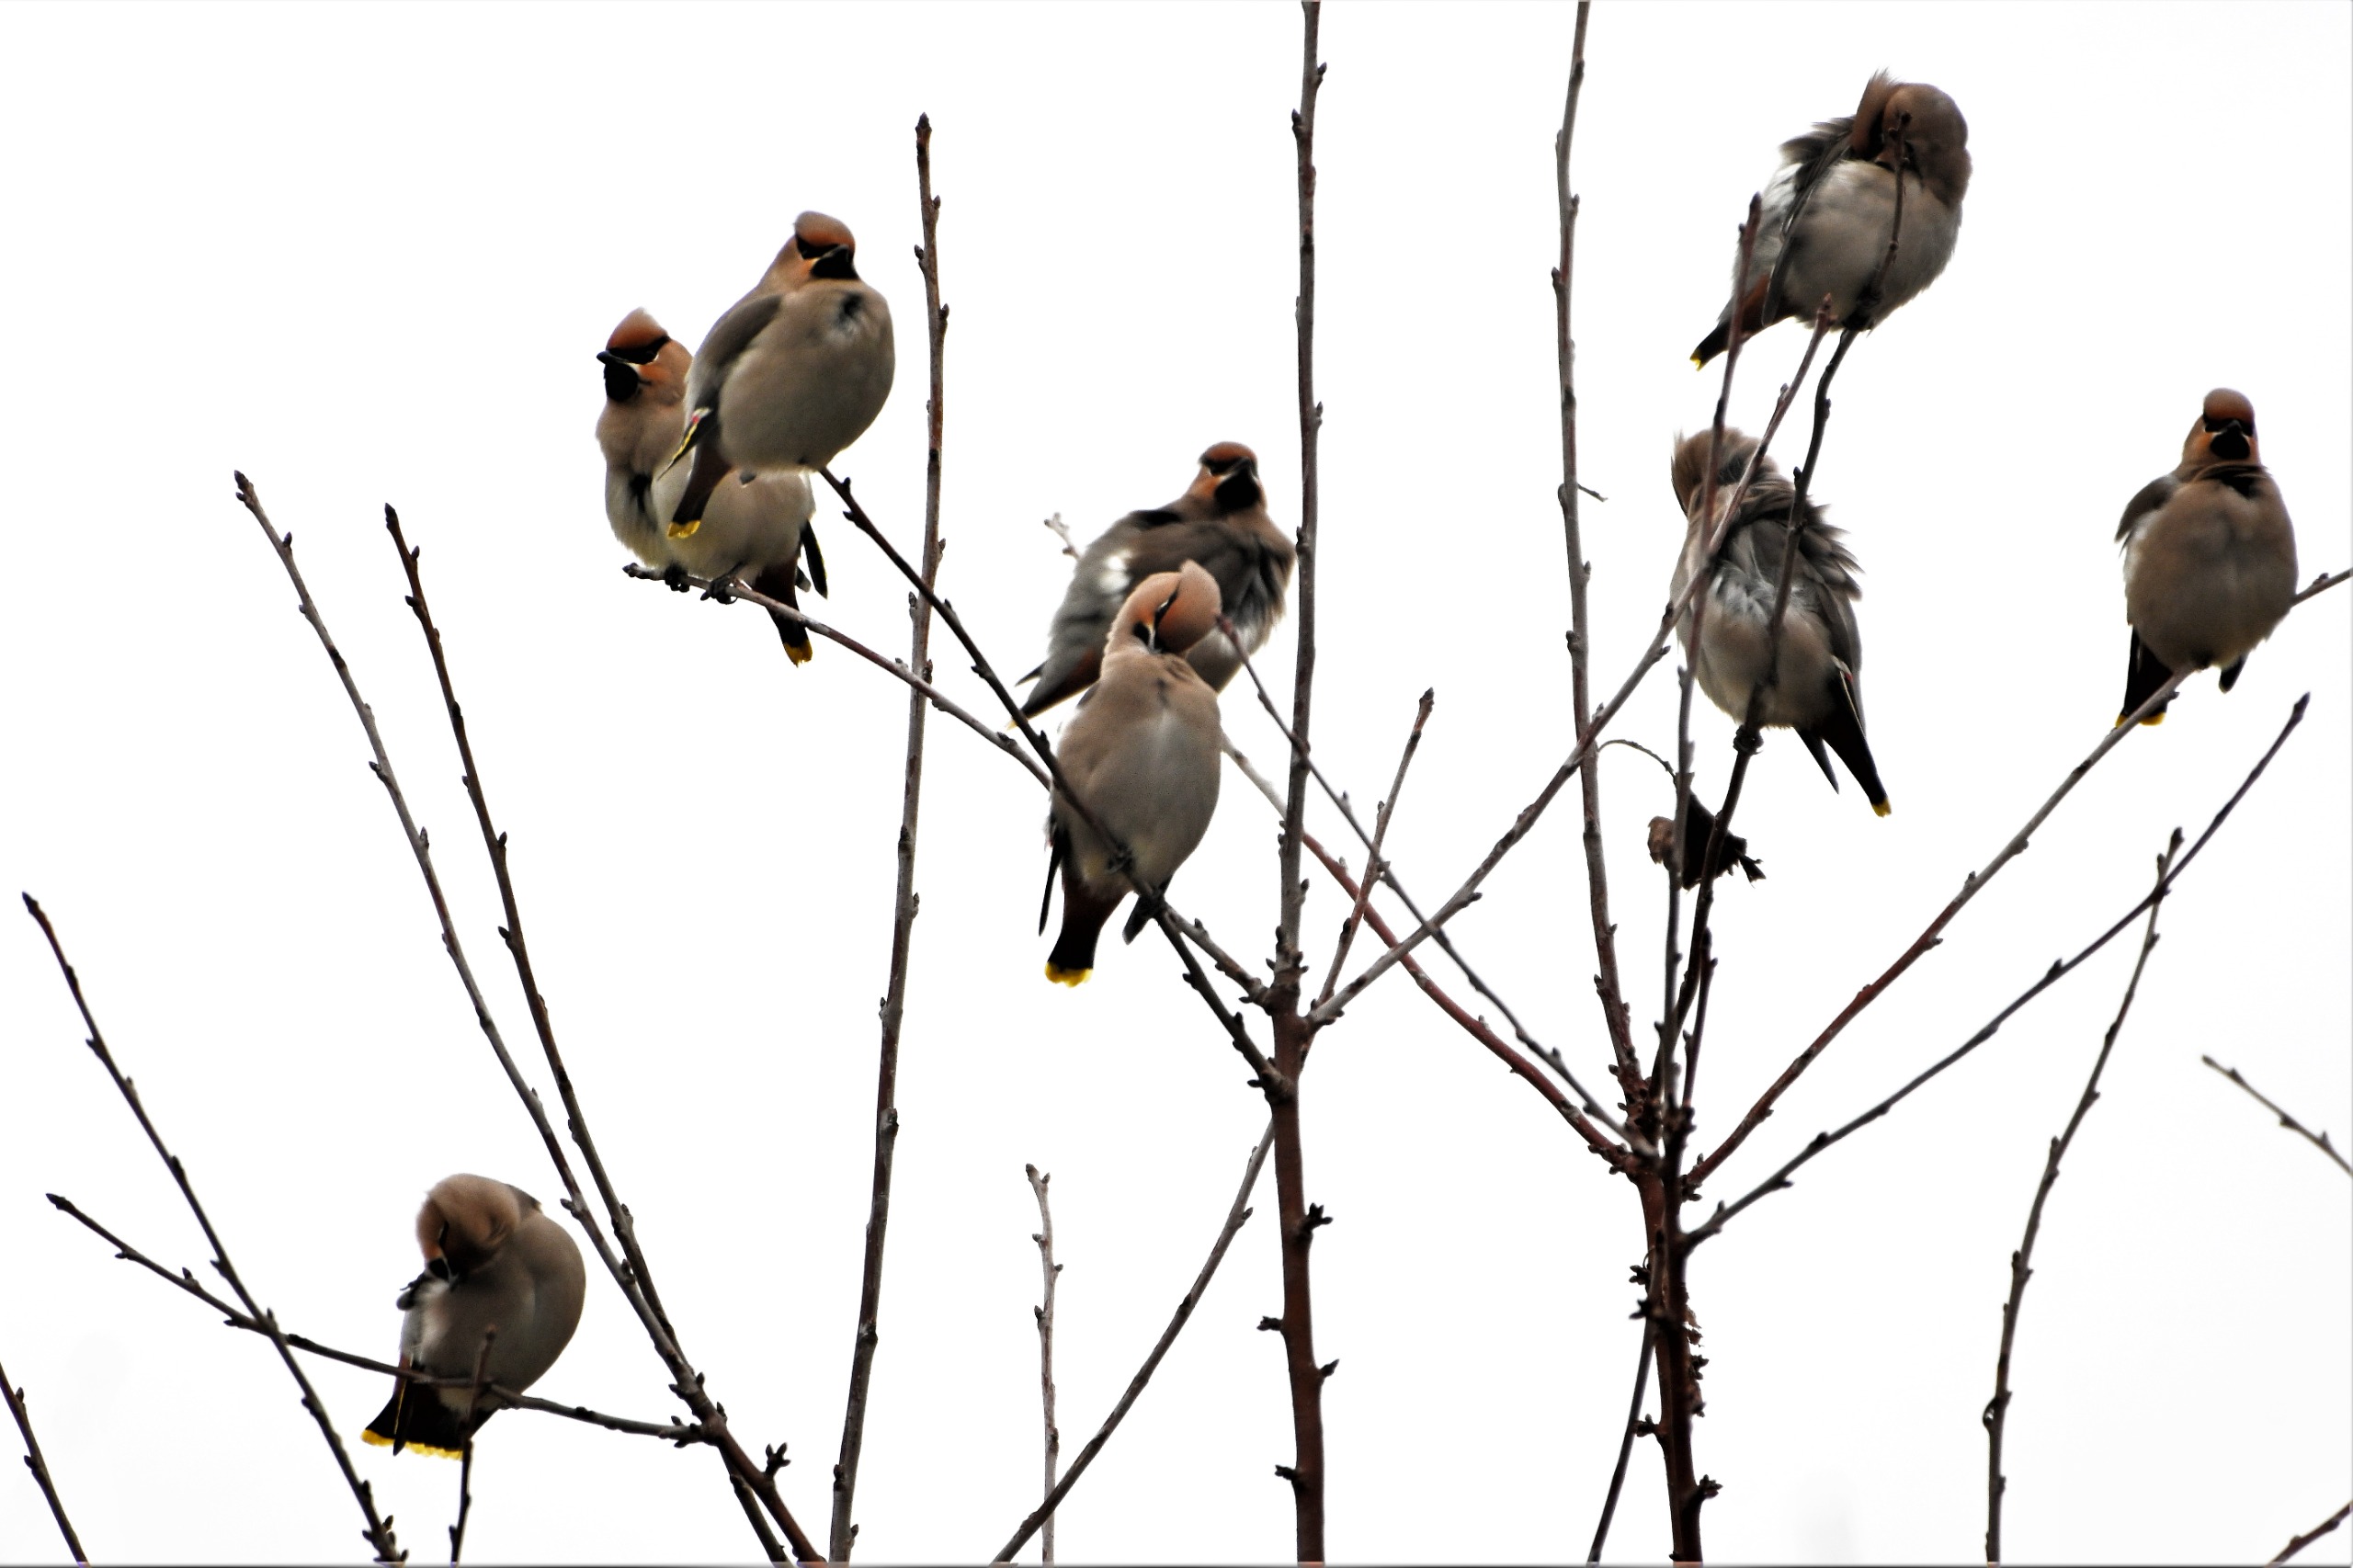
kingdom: Animalia
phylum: Chordata
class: Aves
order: Passeriformes
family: Bombycillidae
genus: Bombycilla
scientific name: Bombycilla garrulus
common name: Silkehale
